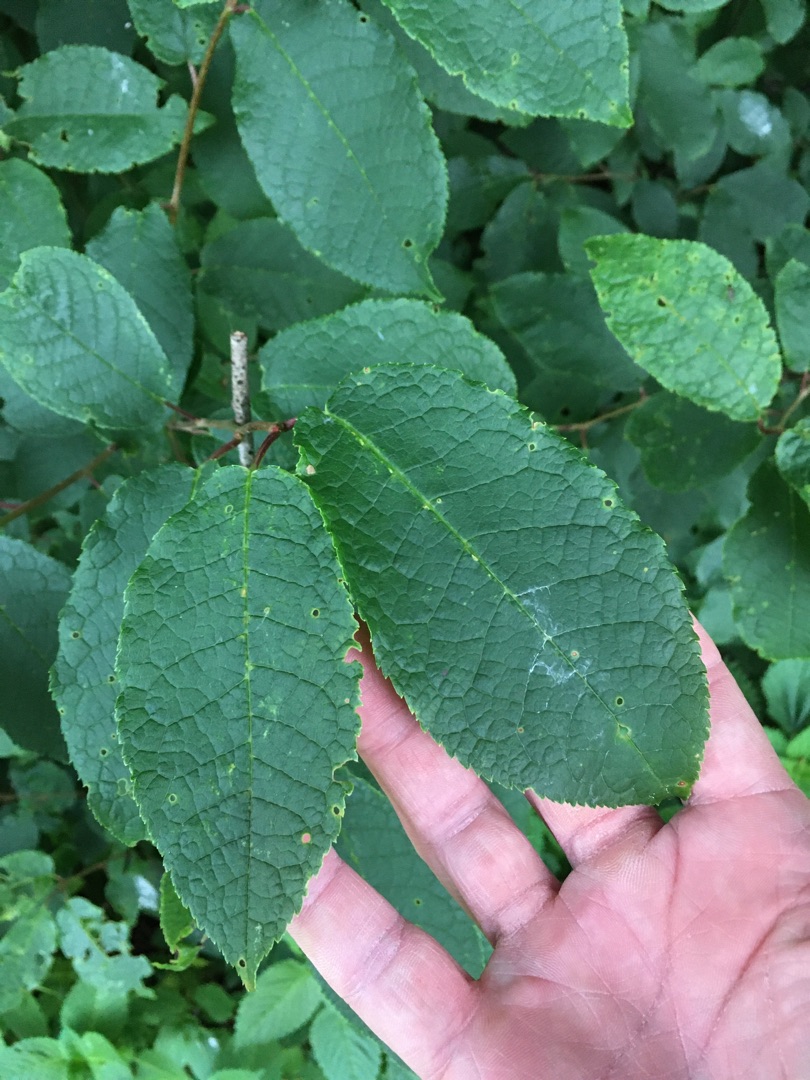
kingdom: Plantae
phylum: Tracheophyta
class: Magnoliopsida
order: Rosales
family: Rosaceae
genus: Prunus
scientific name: Prunus padus
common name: Almindelig hæg
